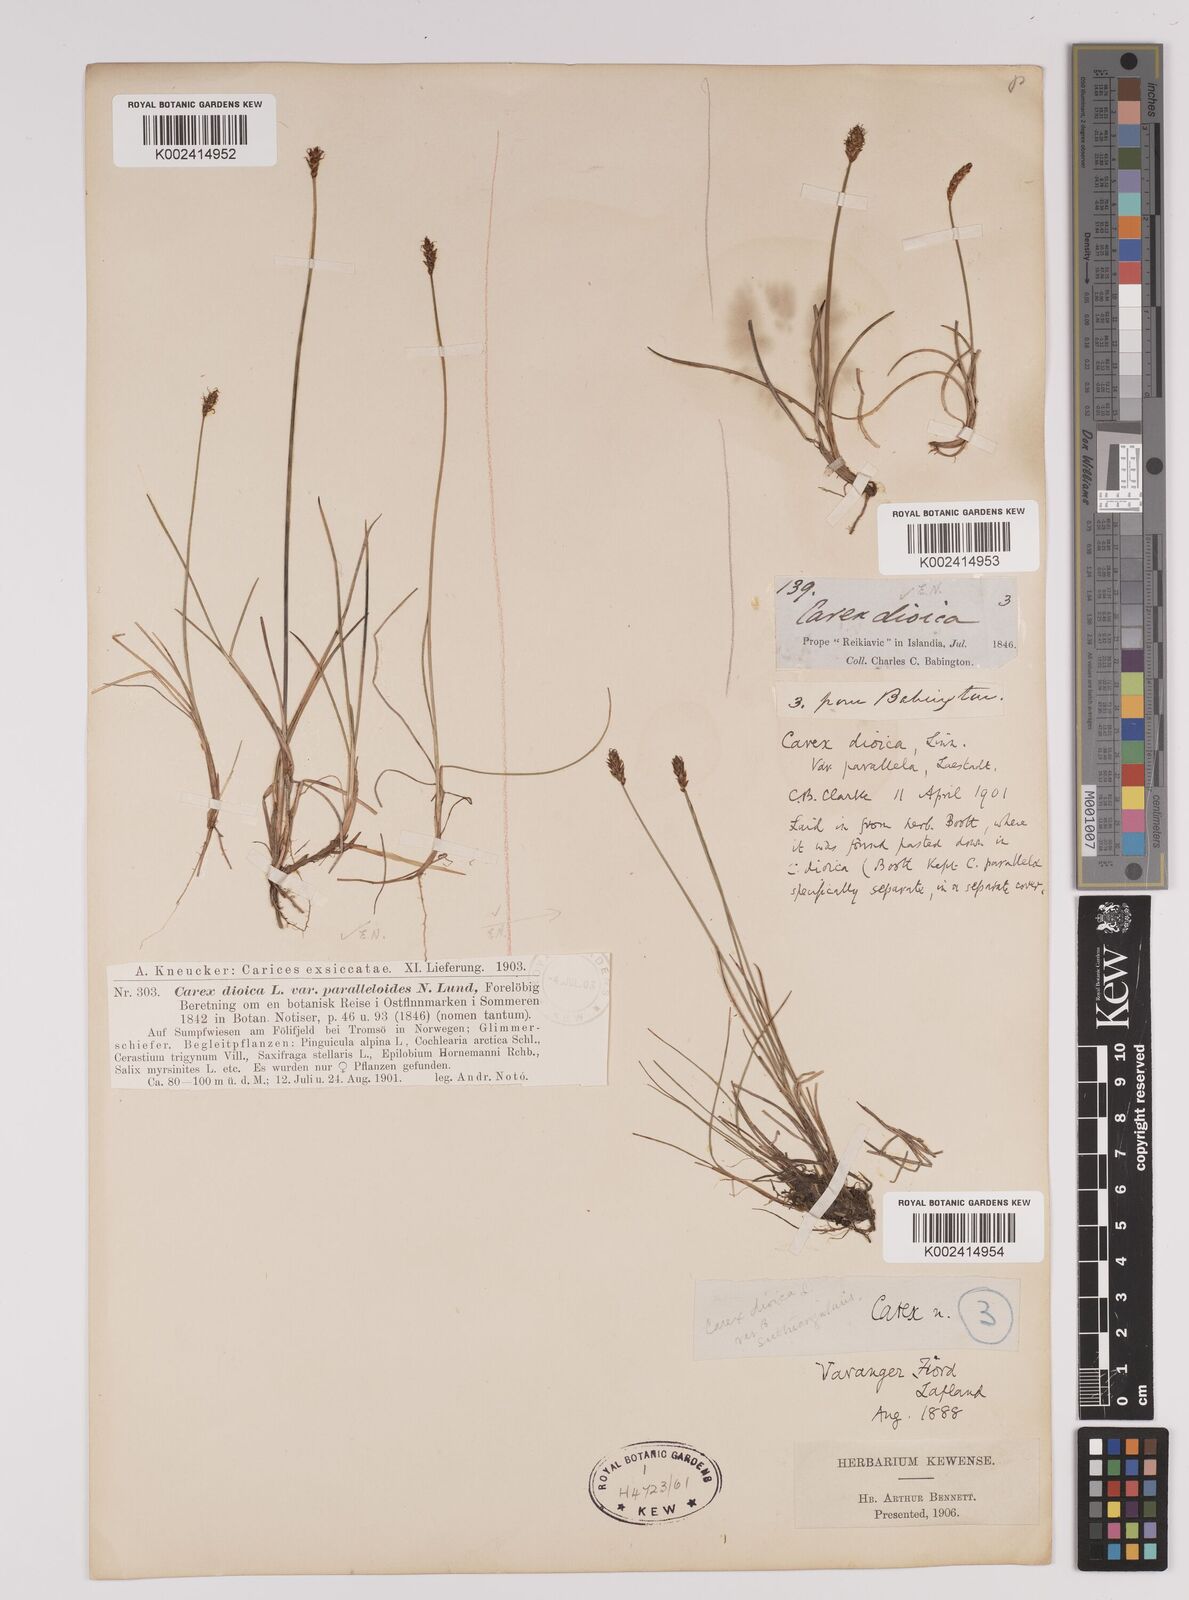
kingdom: Plantae
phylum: Tracheophyta
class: Liliopsida
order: Poales
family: Cyperaceae
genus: Carex
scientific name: Carex dioica
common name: Dioecious sedge
